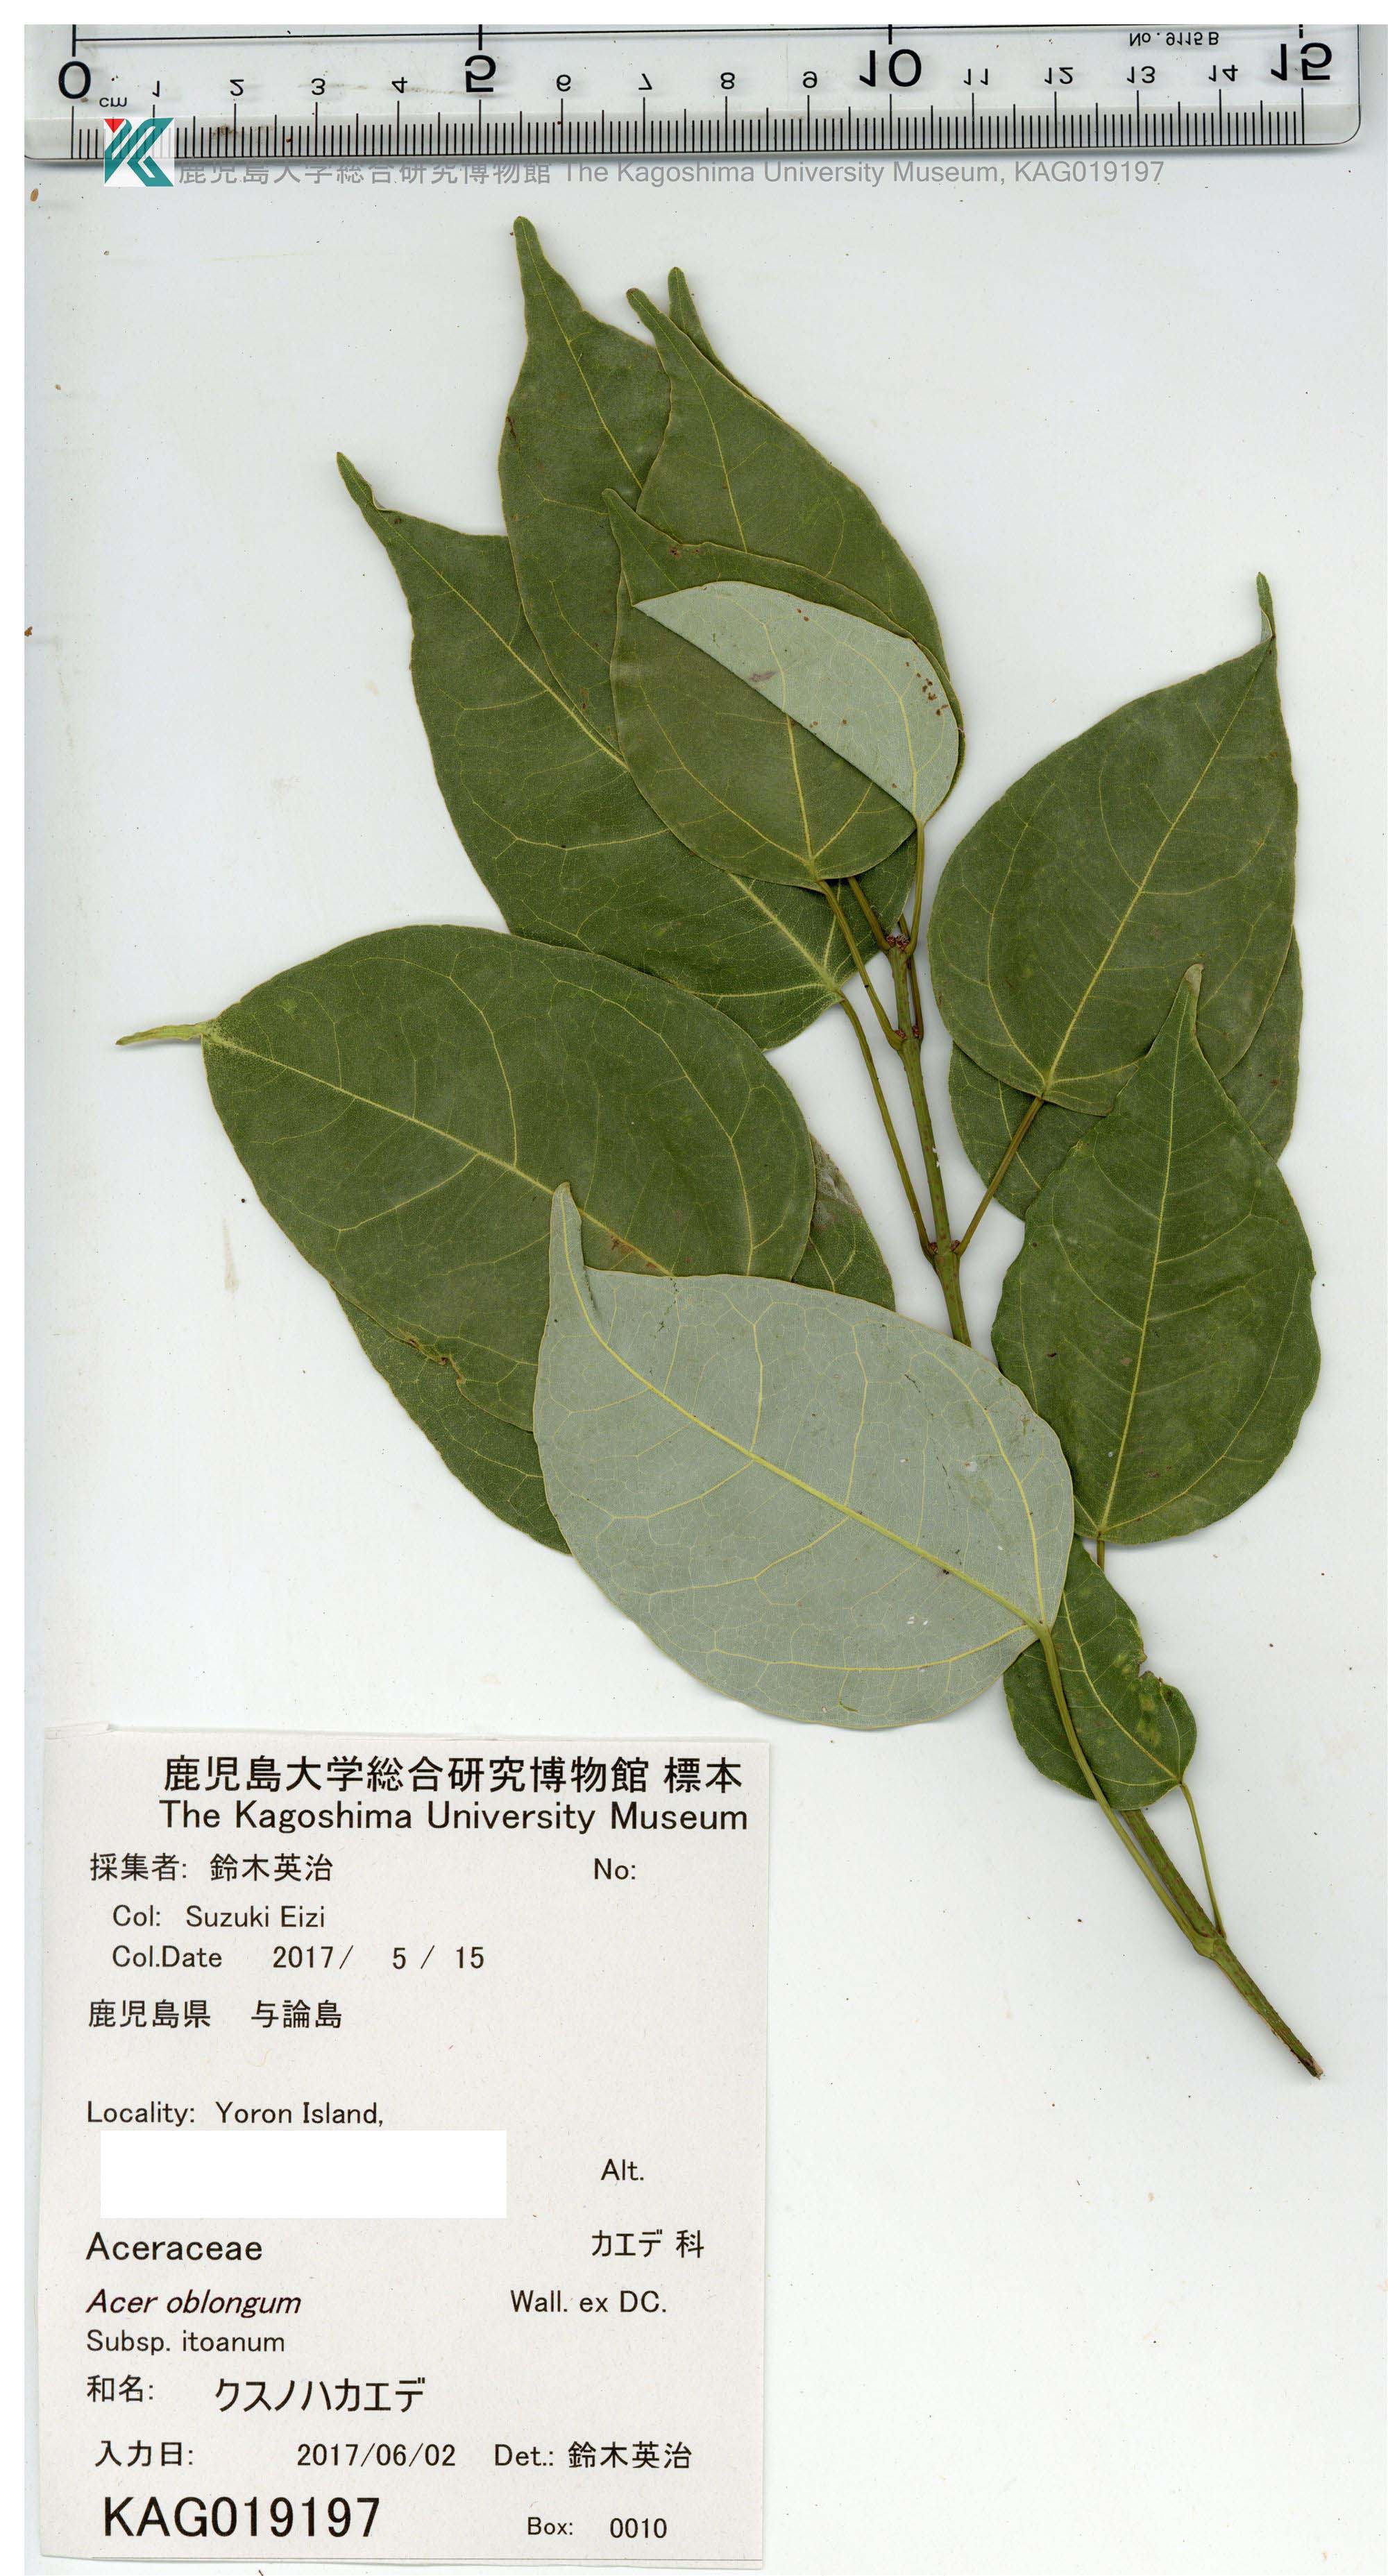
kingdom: Plantae
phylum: Tracheophyta
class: Magnoliopsida
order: Sapindales
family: Sapindaceae
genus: Acer
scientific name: Acer oblongum
